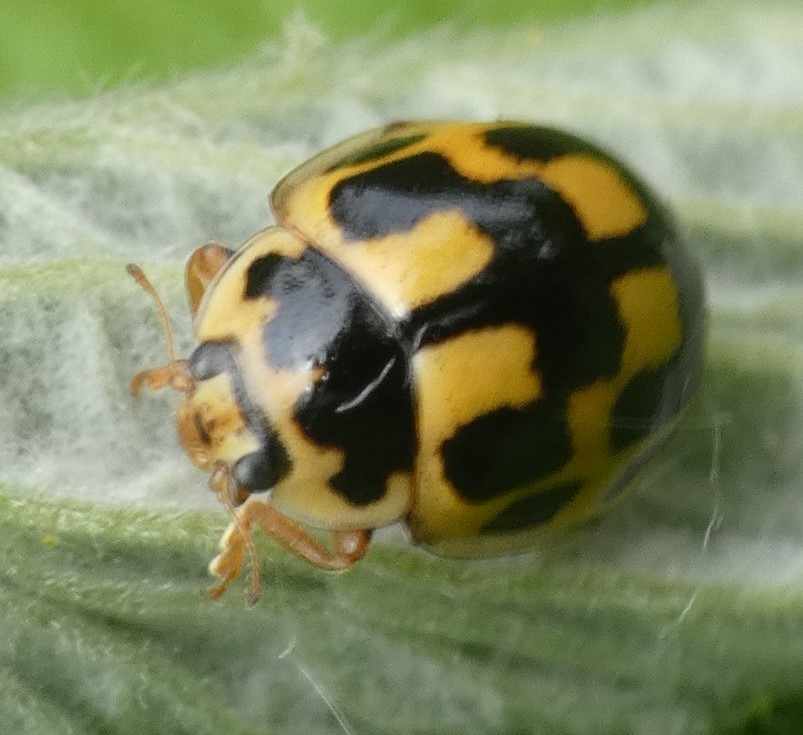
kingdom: Animalia
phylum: Arthropoda
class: Insecta
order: Coleoptera
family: Coccinellidae
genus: Propylaea
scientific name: Propylaea quatuordecimpunctata
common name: Skakbræt
